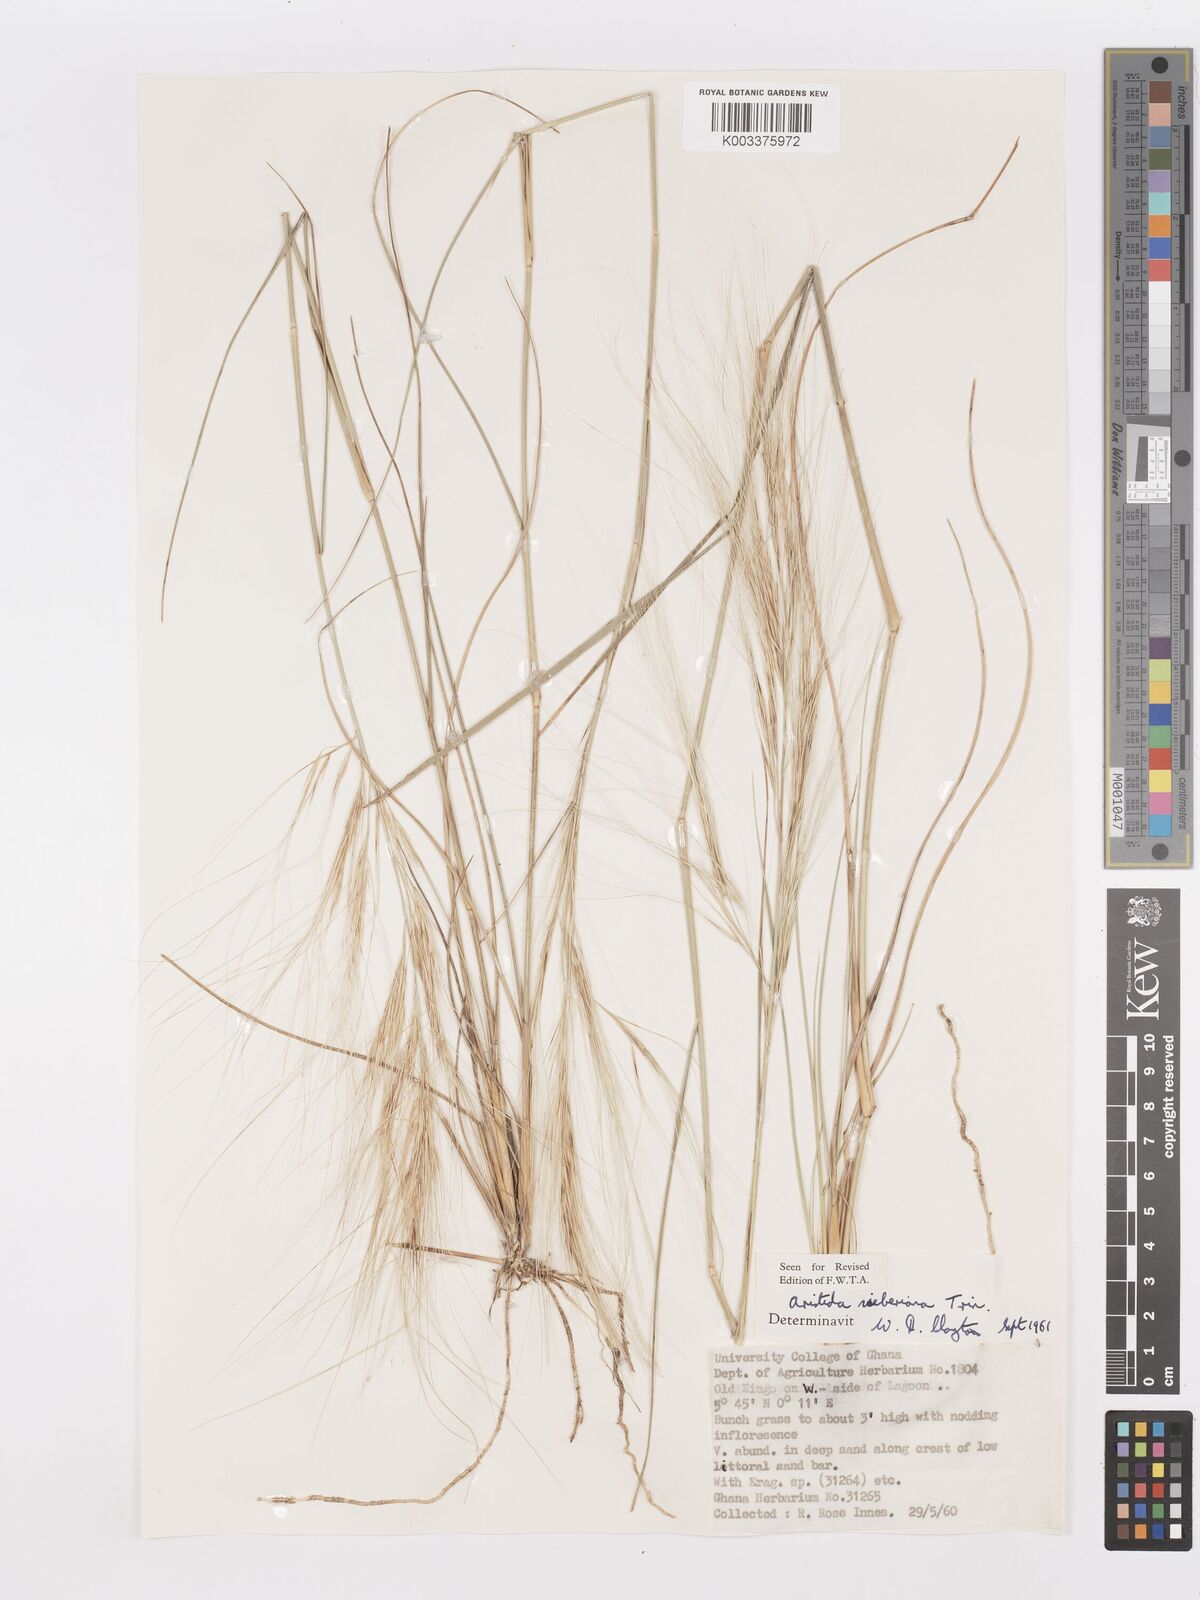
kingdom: Plantae
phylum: Tracheophyta
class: Liliopsida
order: Poales
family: Poaceae
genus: Aristida
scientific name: Aristida sieberiana
